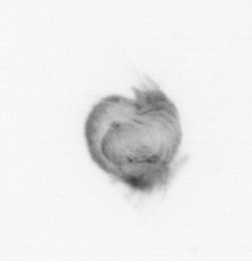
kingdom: Animalia
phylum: Annelida
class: Polychaeta
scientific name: Polychaeta
